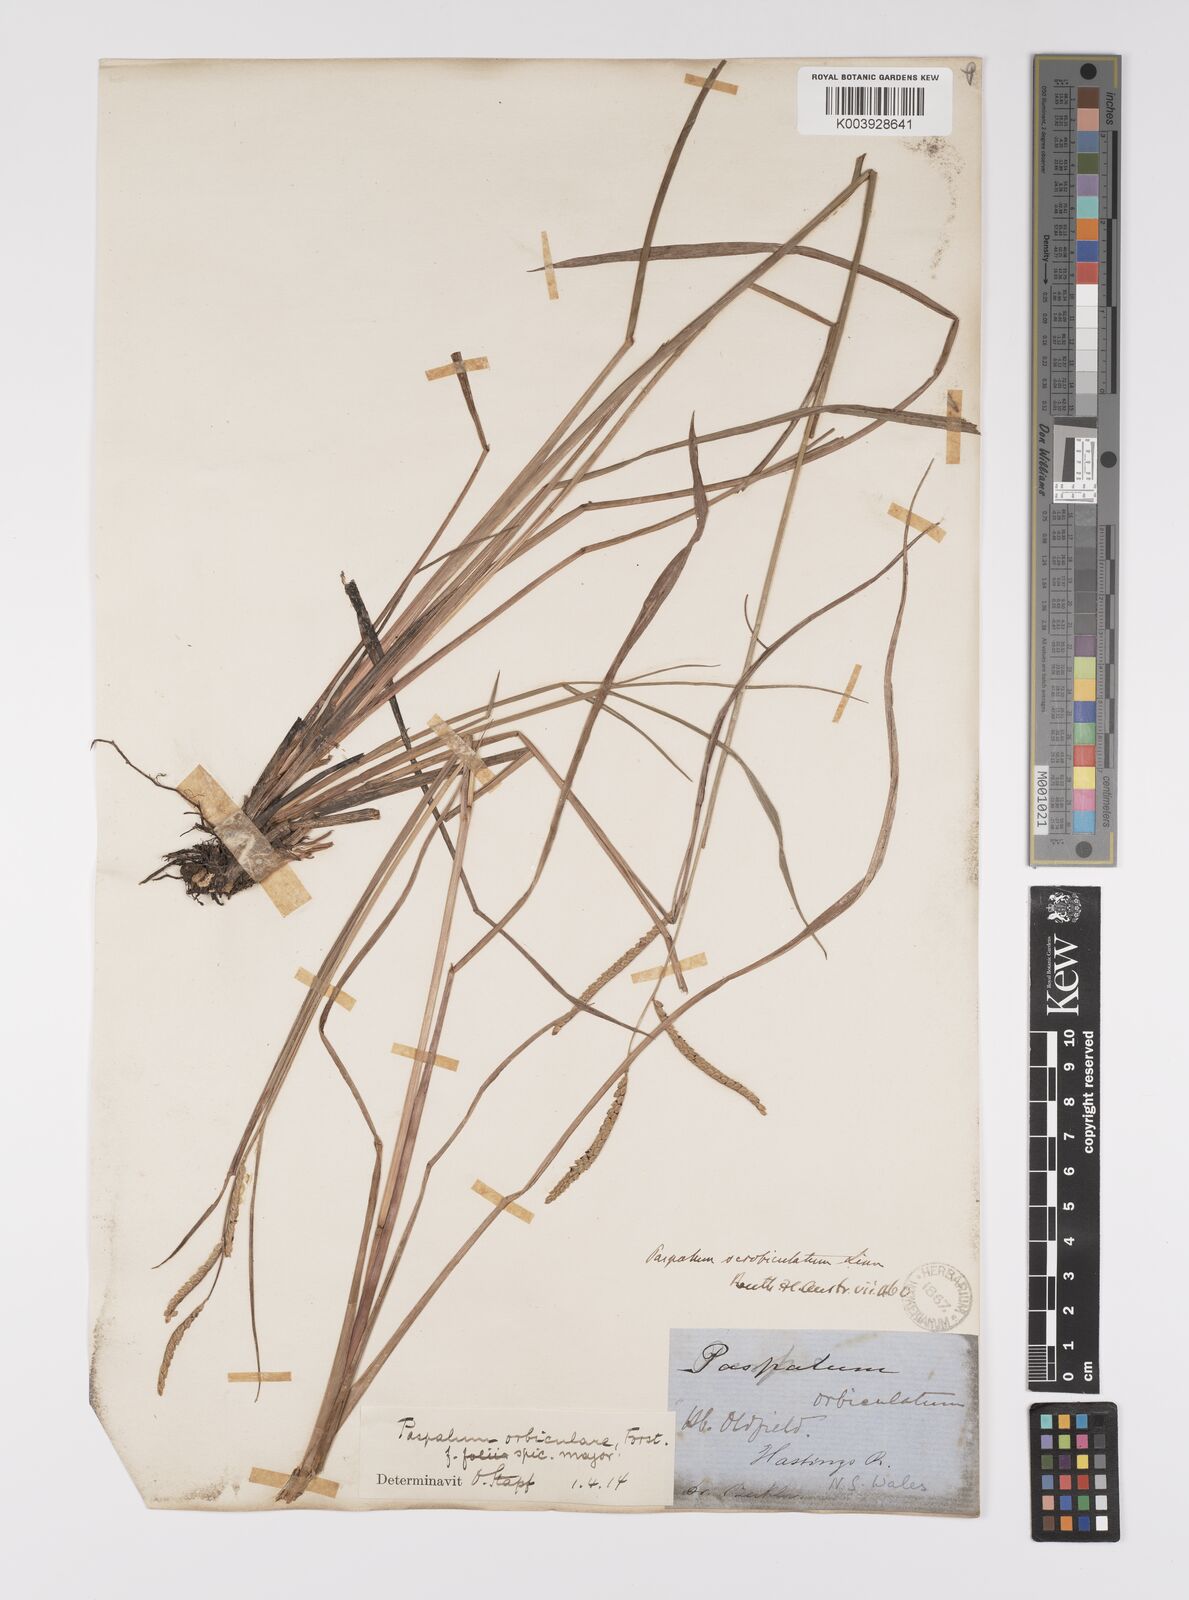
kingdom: Plantae
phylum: Tracheophyta
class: Liliopsida
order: Poales
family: Poaceae
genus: Paspalum
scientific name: Paspalum scrobiculatum
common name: Kodo millet
